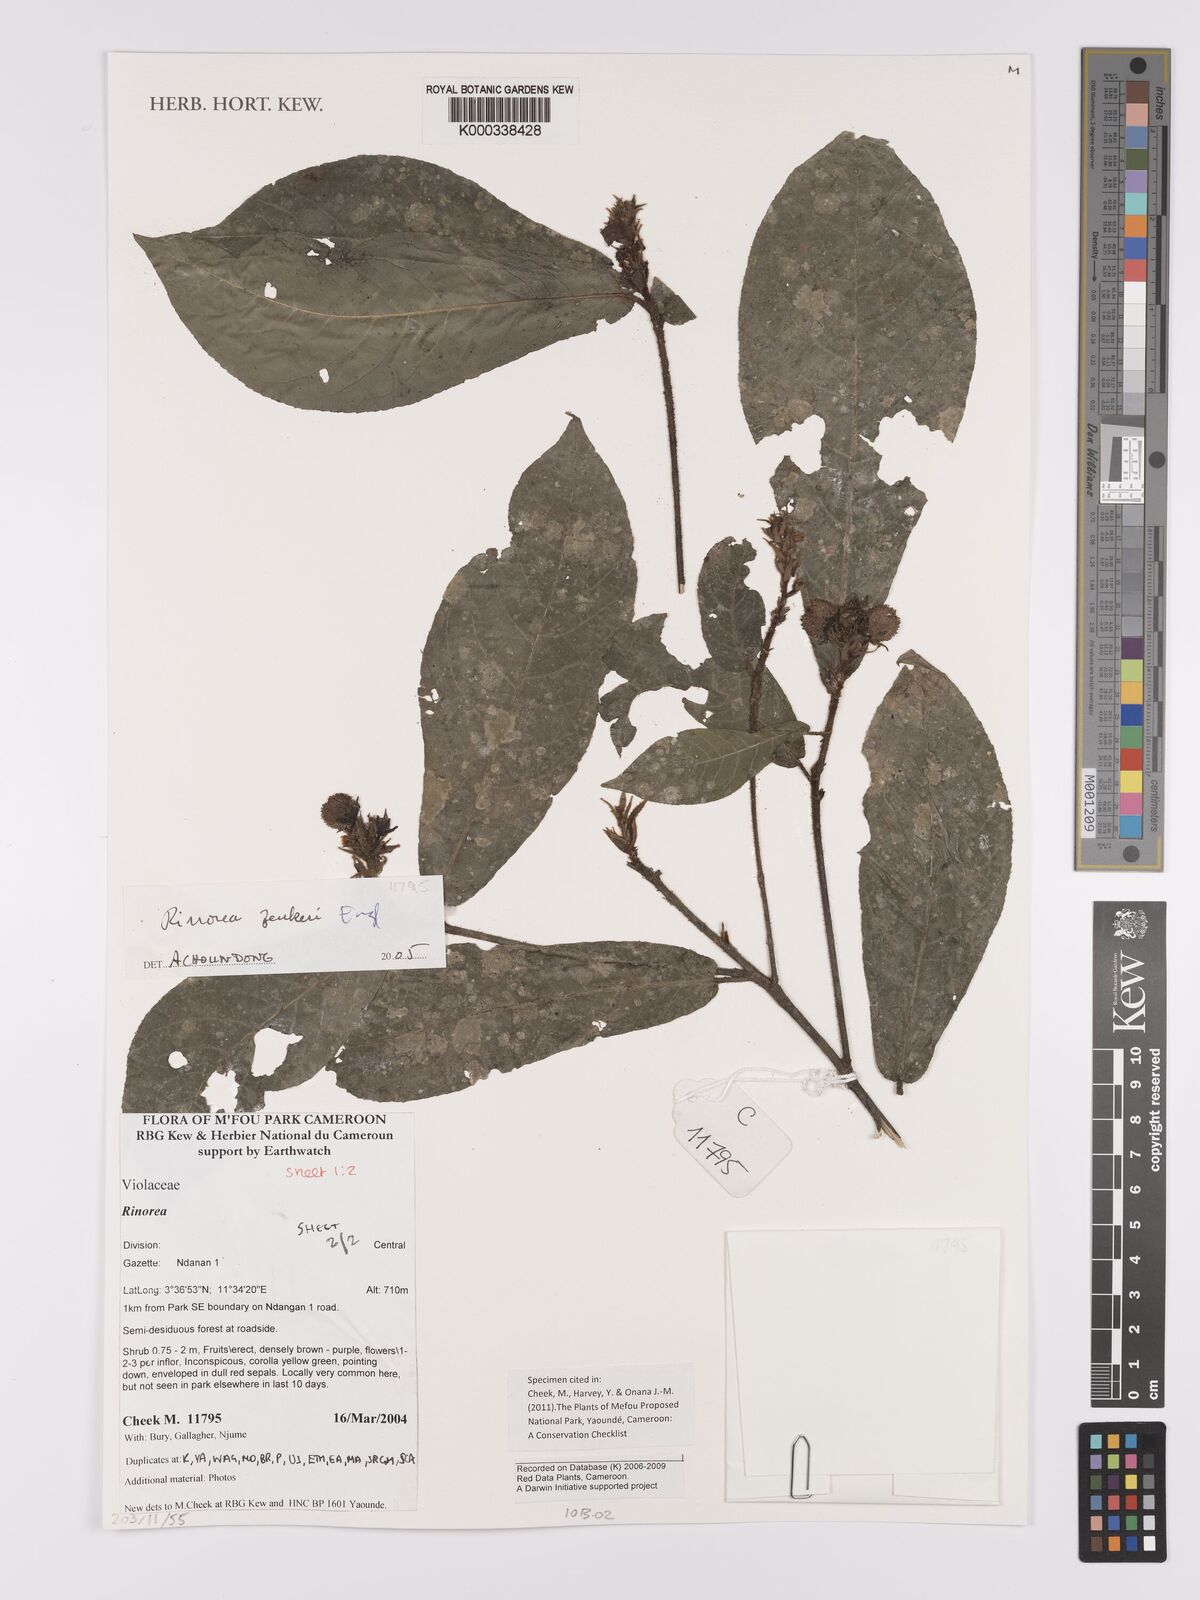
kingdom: Plantae
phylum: Tracheophyta
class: Magnoliopsida
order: Malpighiales
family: Violaceae
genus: Rinorea
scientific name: Rinorea zenkeri
